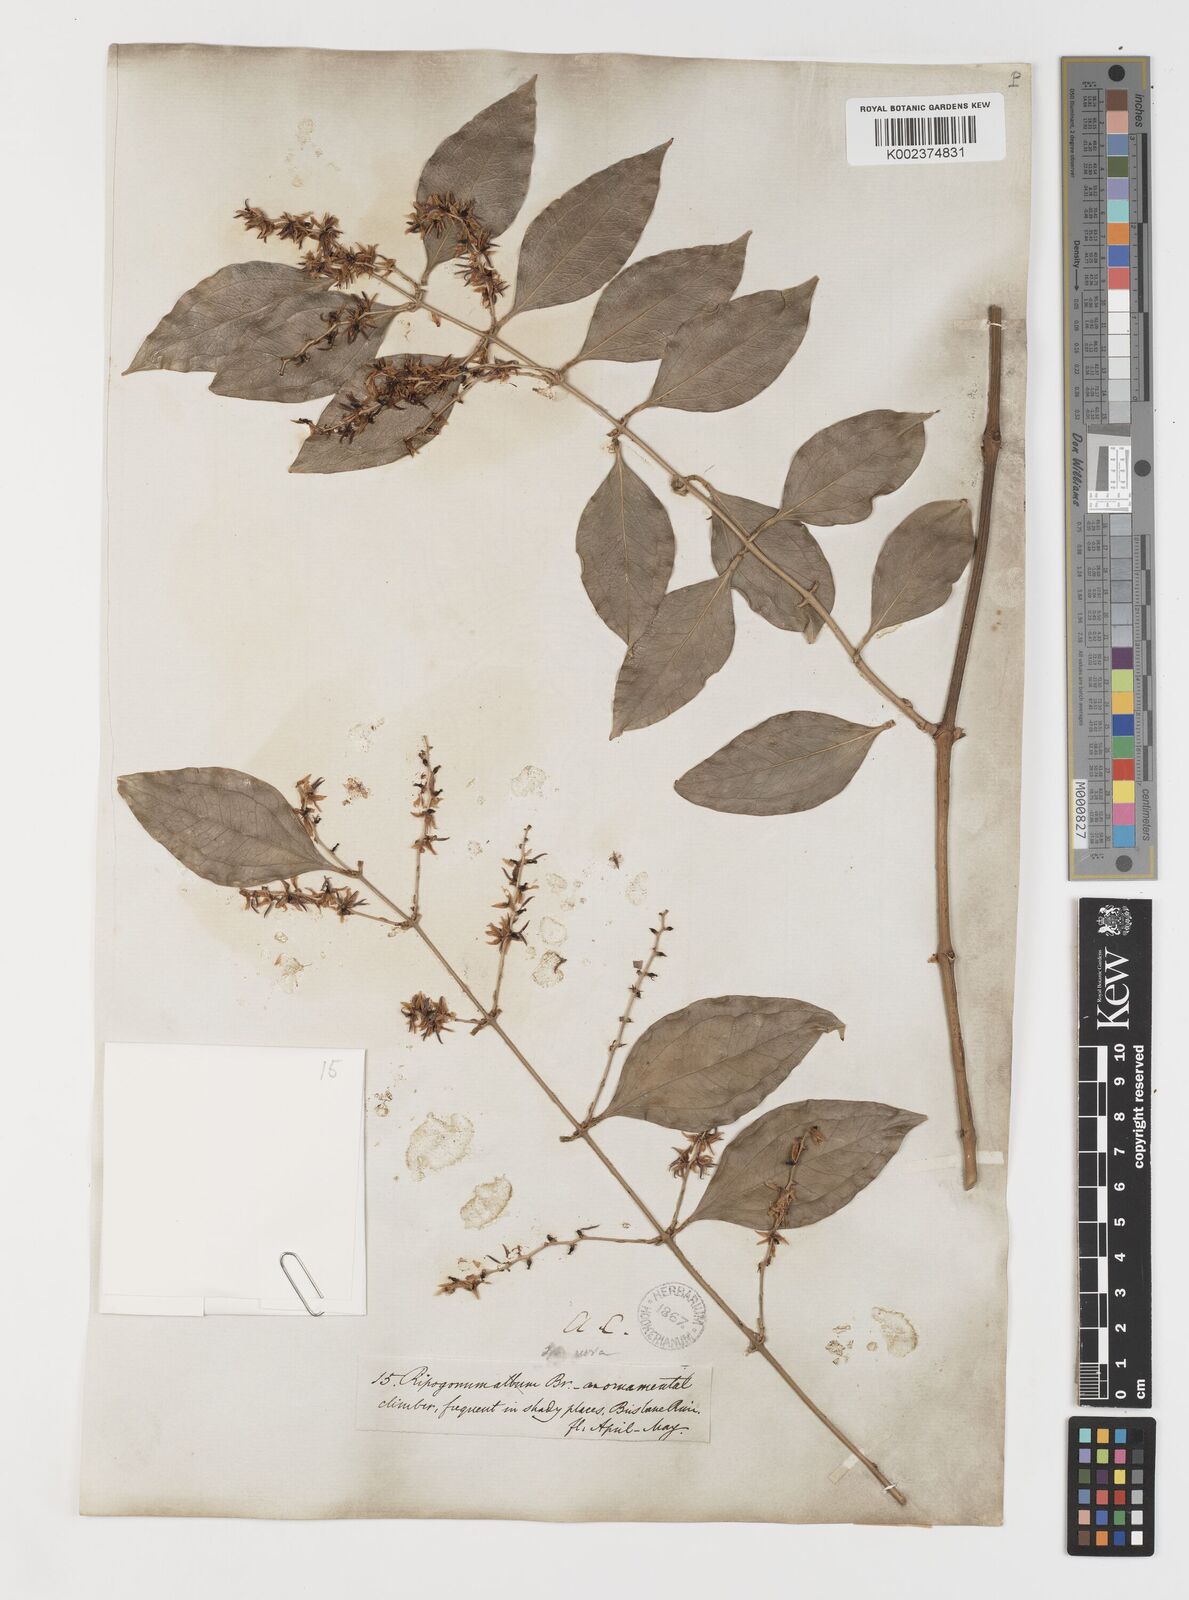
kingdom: Plantae
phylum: Tracheophyta
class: Liliopsida
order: Liliales
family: Ripogonaceae
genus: Ripogonum
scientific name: Ripogonum album
